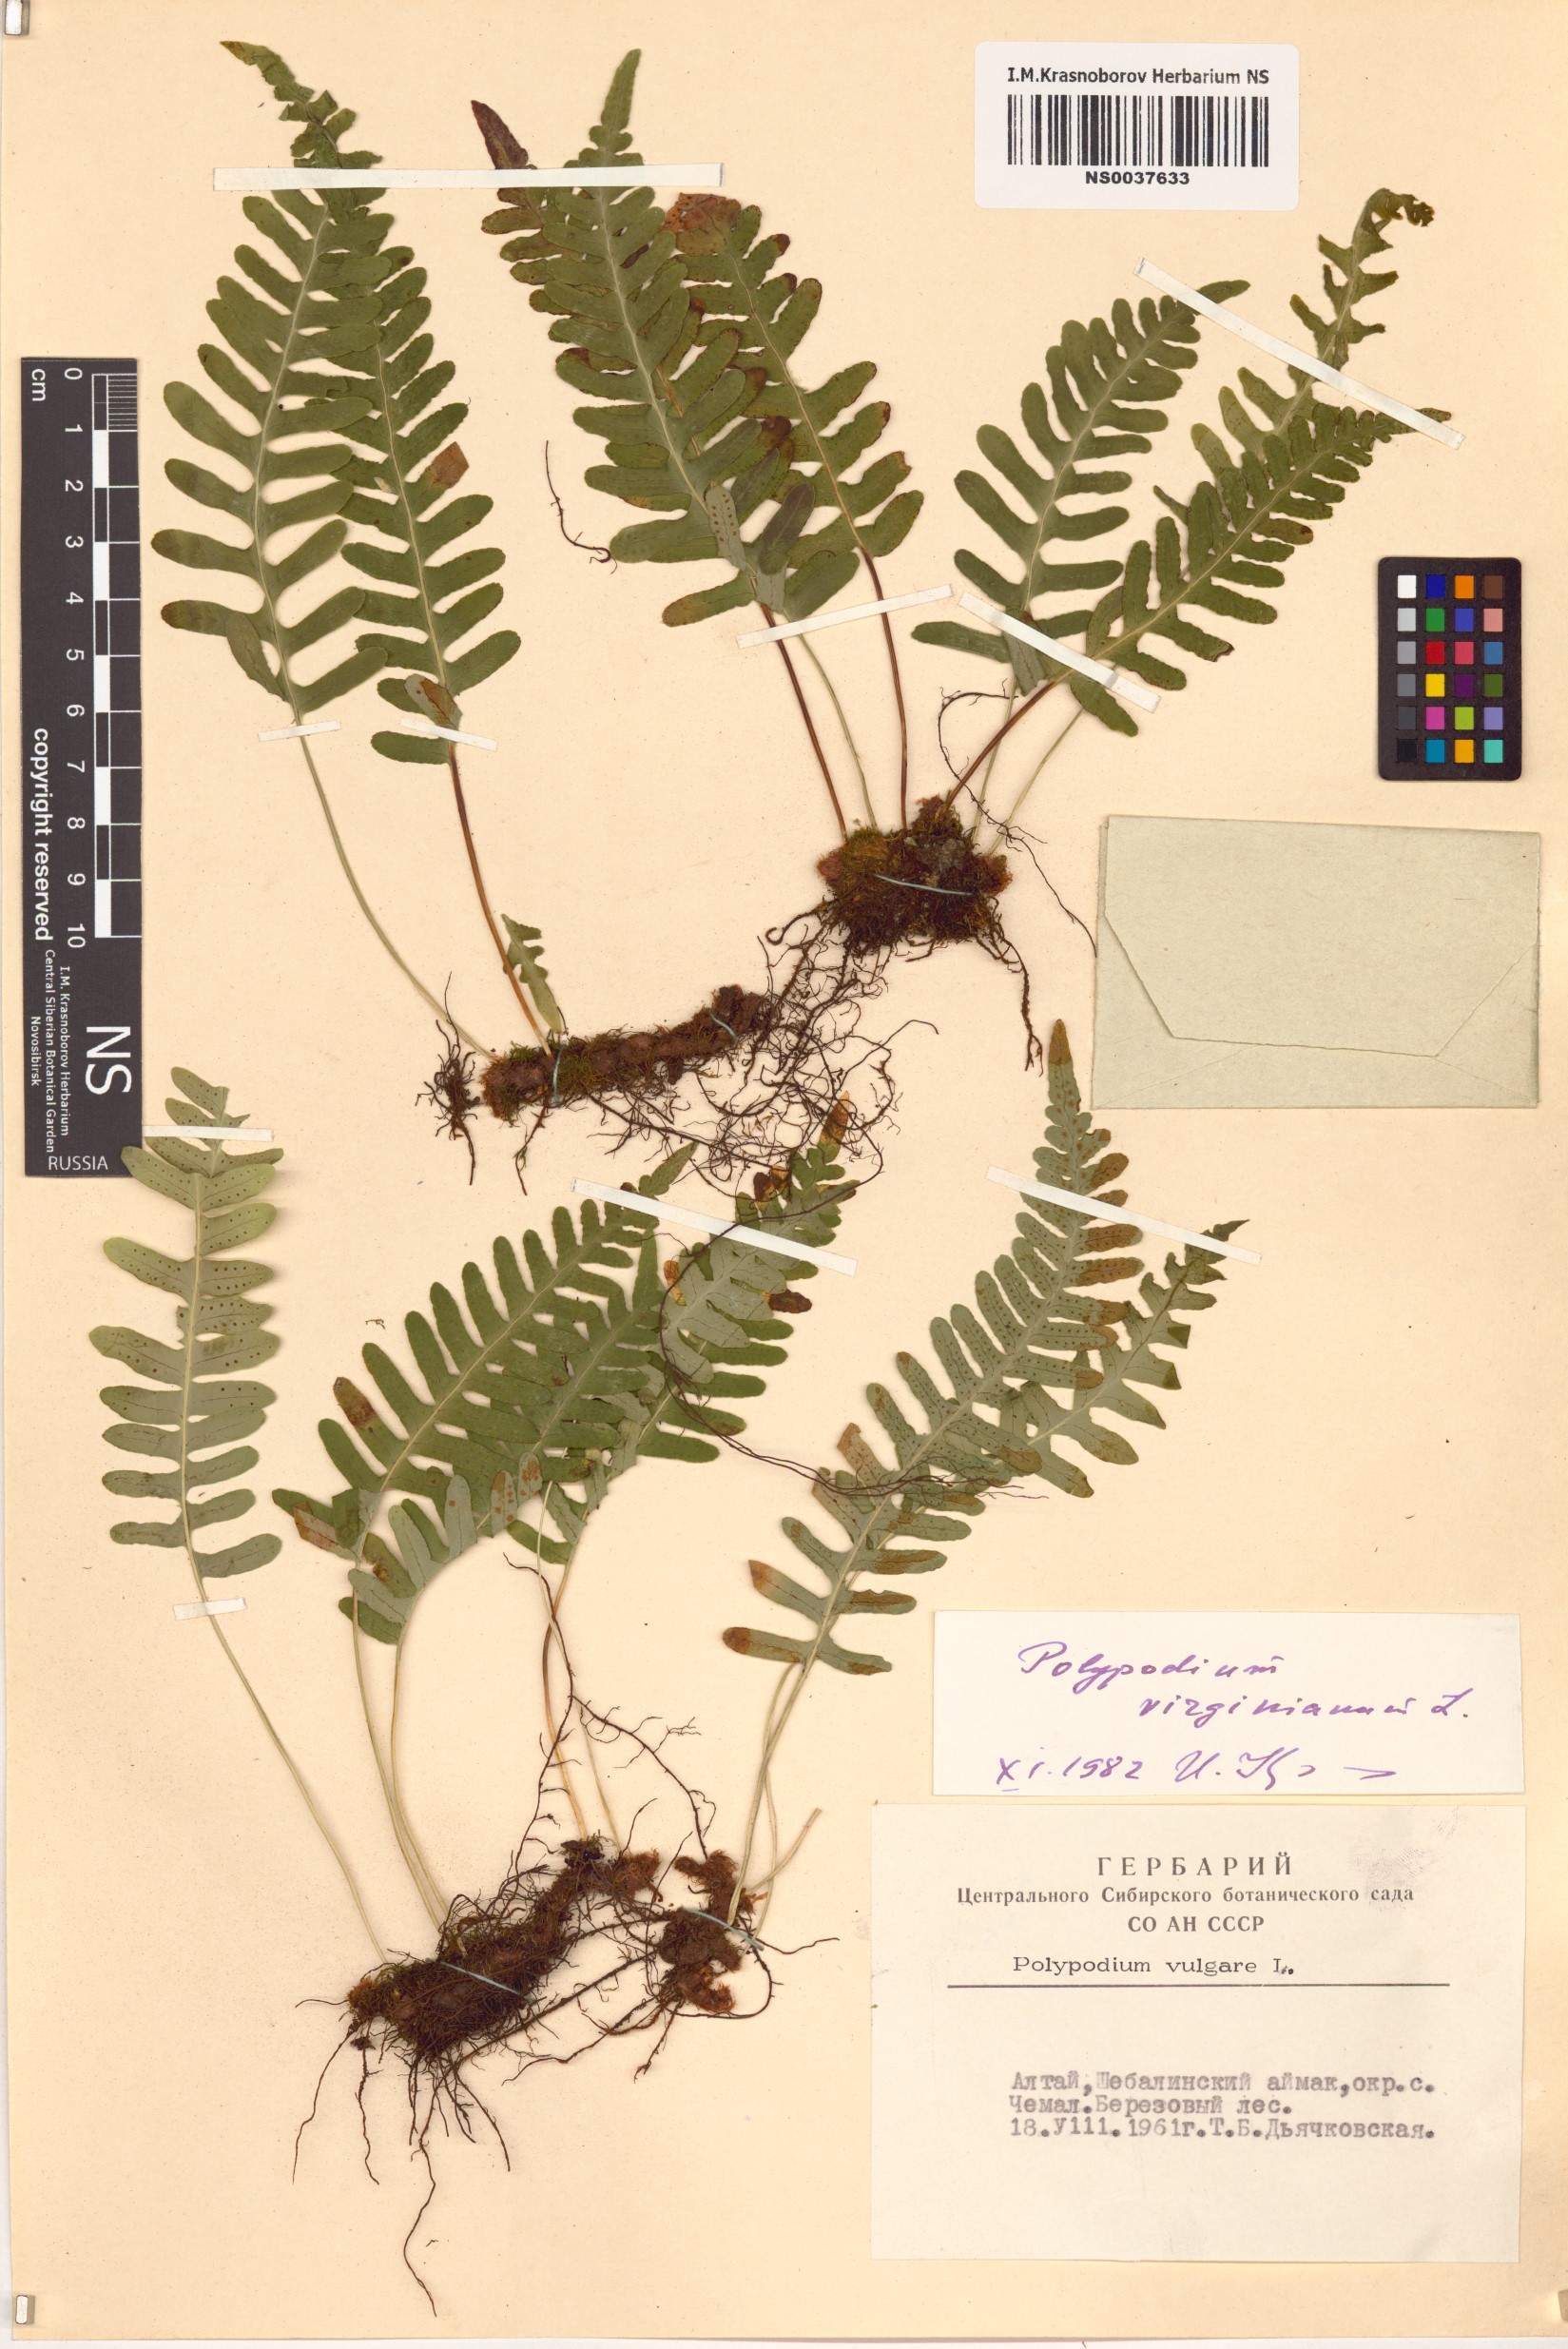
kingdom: Plantae
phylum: Tracheophyta
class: Polypodiopsida
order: Polypodiales
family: Polypodiaceae
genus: Polypodium
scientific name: Polypodium virginianum
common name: American wall fern
